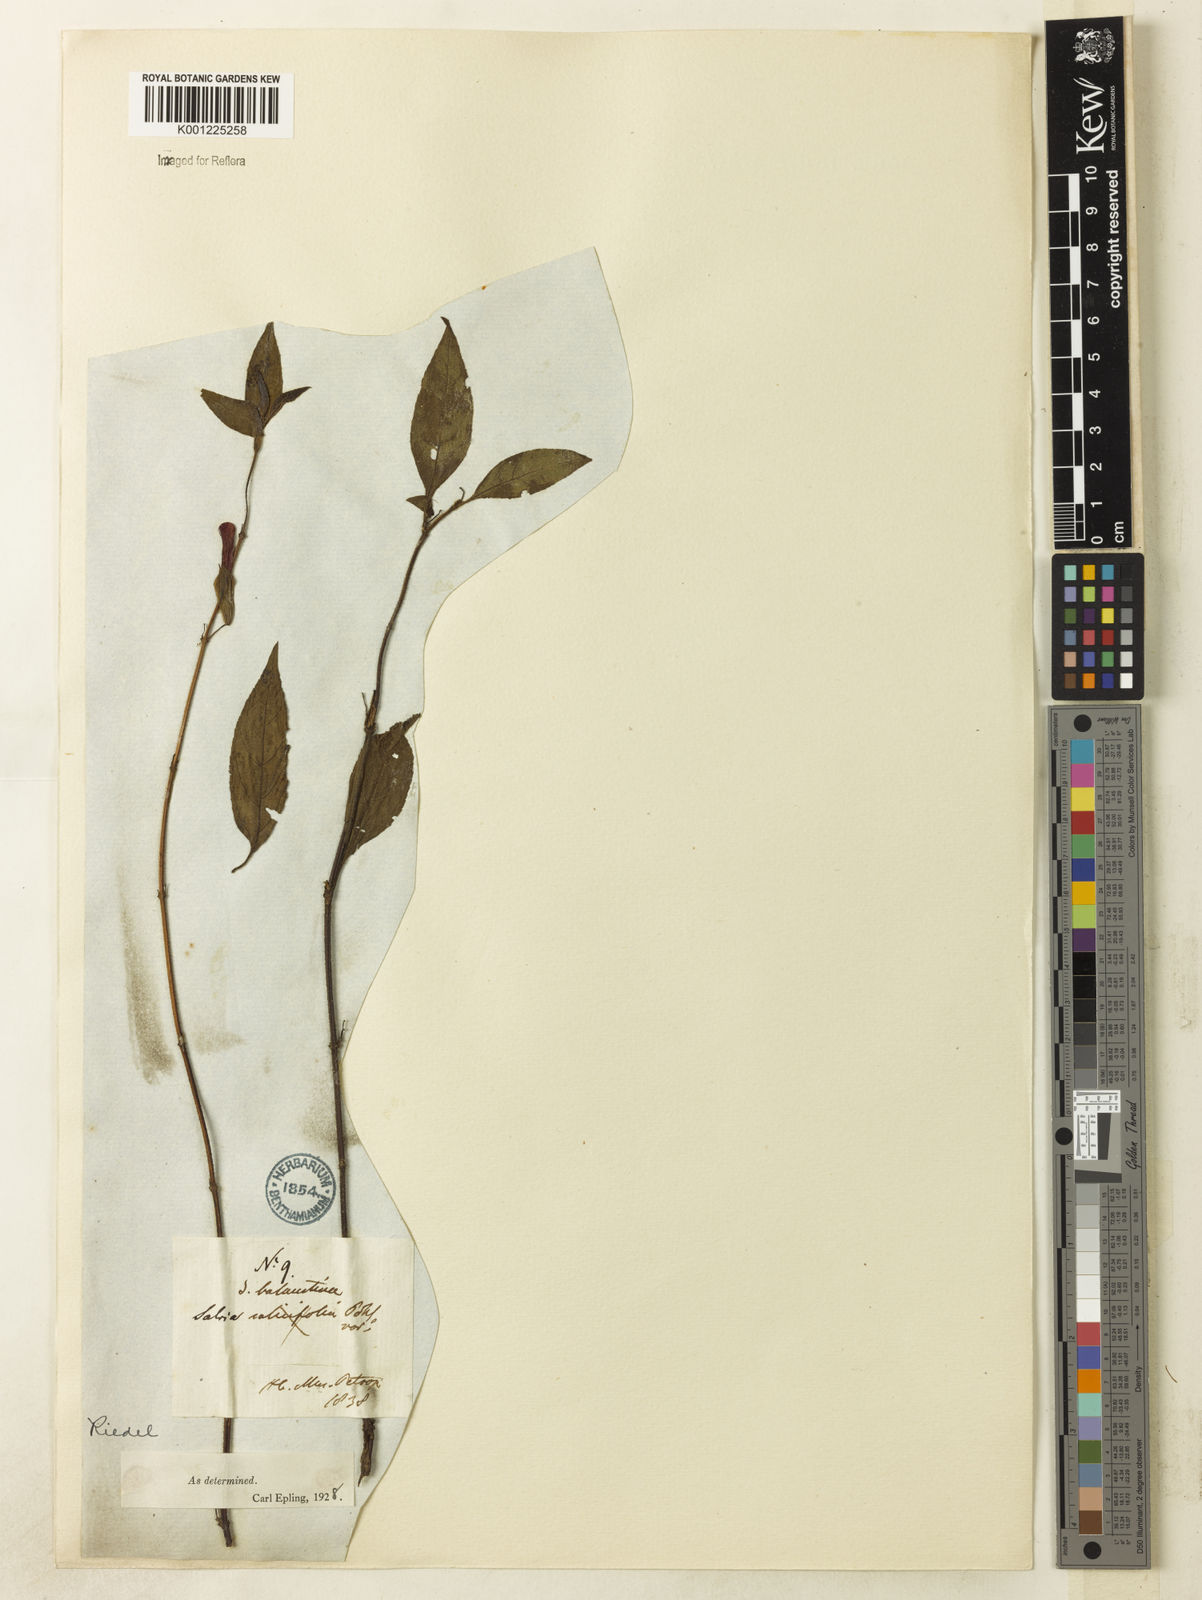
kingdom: Plantae
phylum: Tracheophyta
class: Magnoliopsida
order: Lamiales
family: Lamiaceae
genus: Salvia
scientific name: Salvia balaustina
